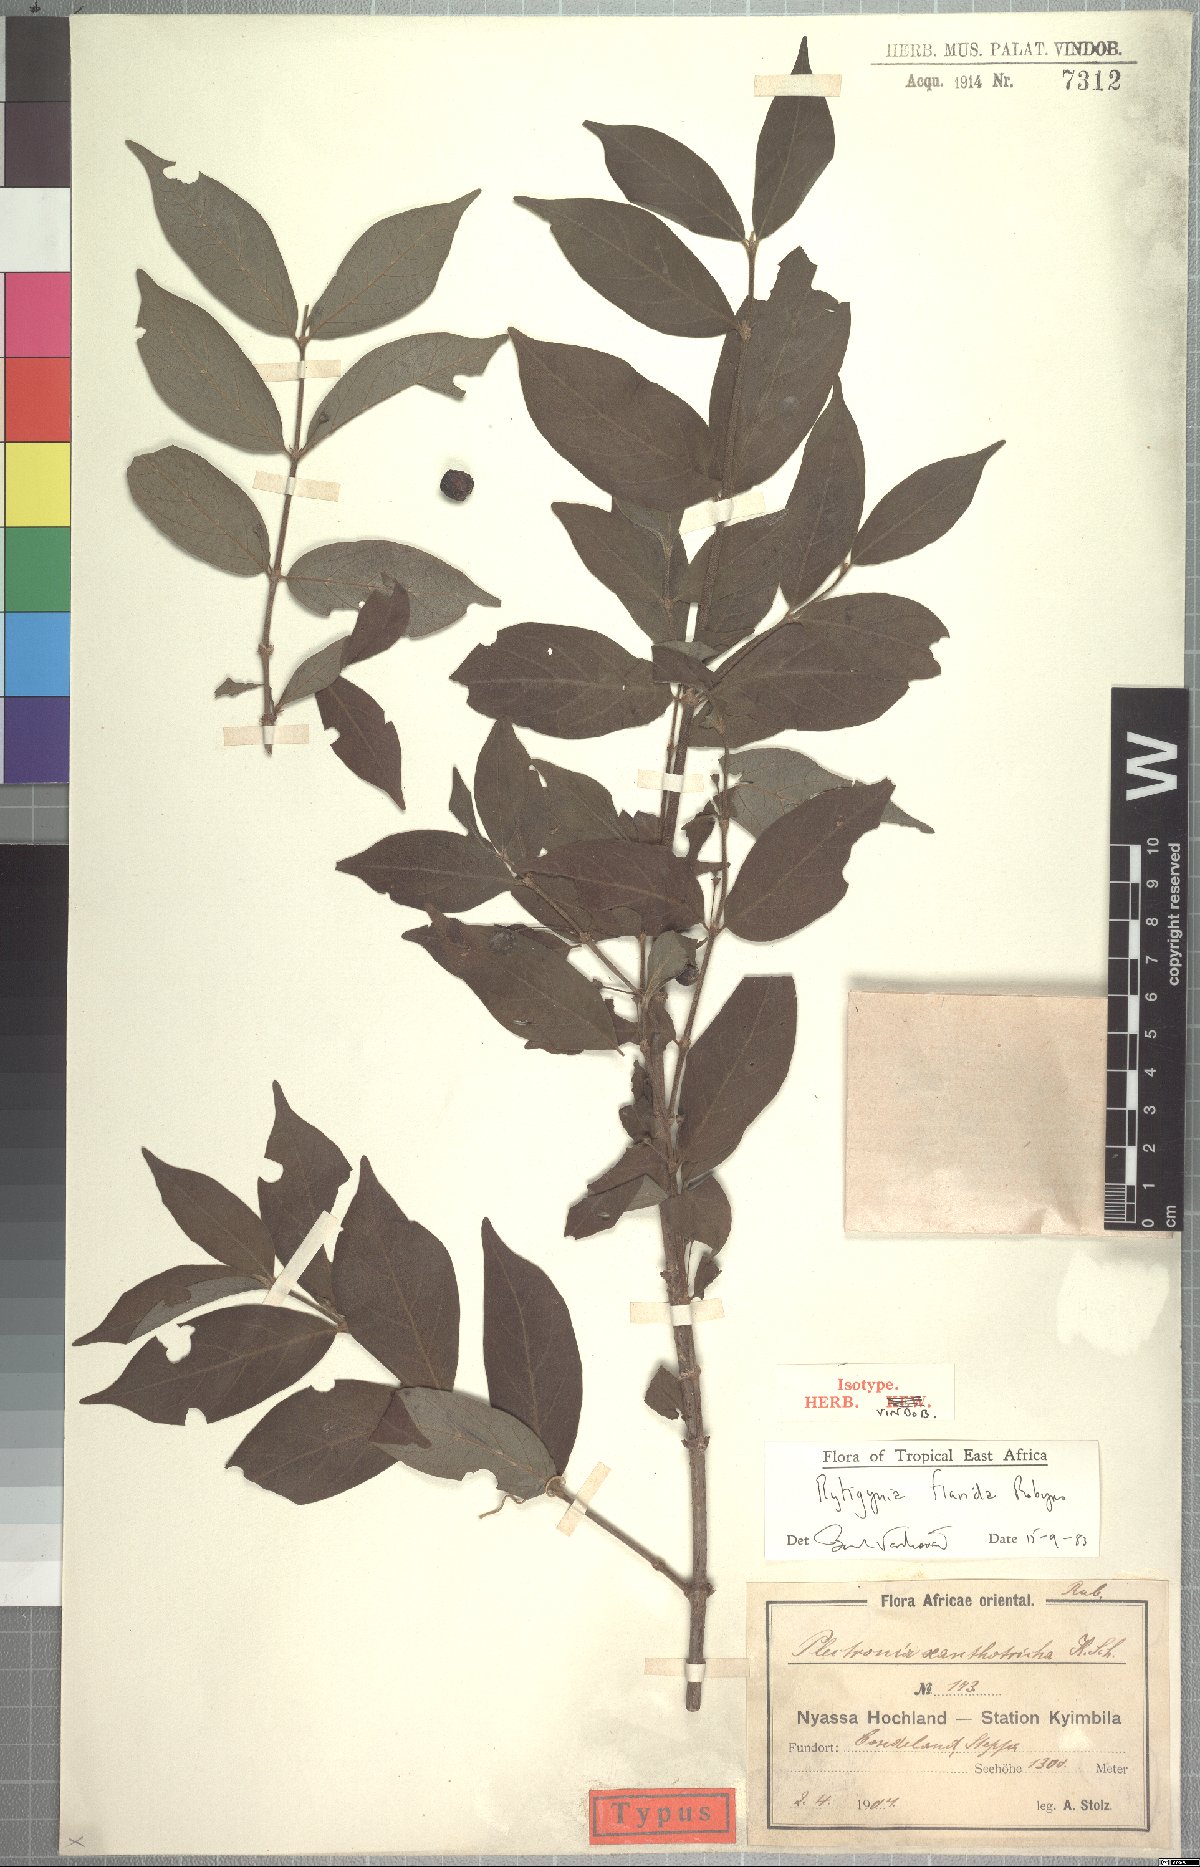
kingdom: Plantae
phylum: Tracheophyta
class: Magnoliopsida
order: Gentianales
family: Rubiaceae
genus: Rytigynia
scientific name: Rytigynia flavida
